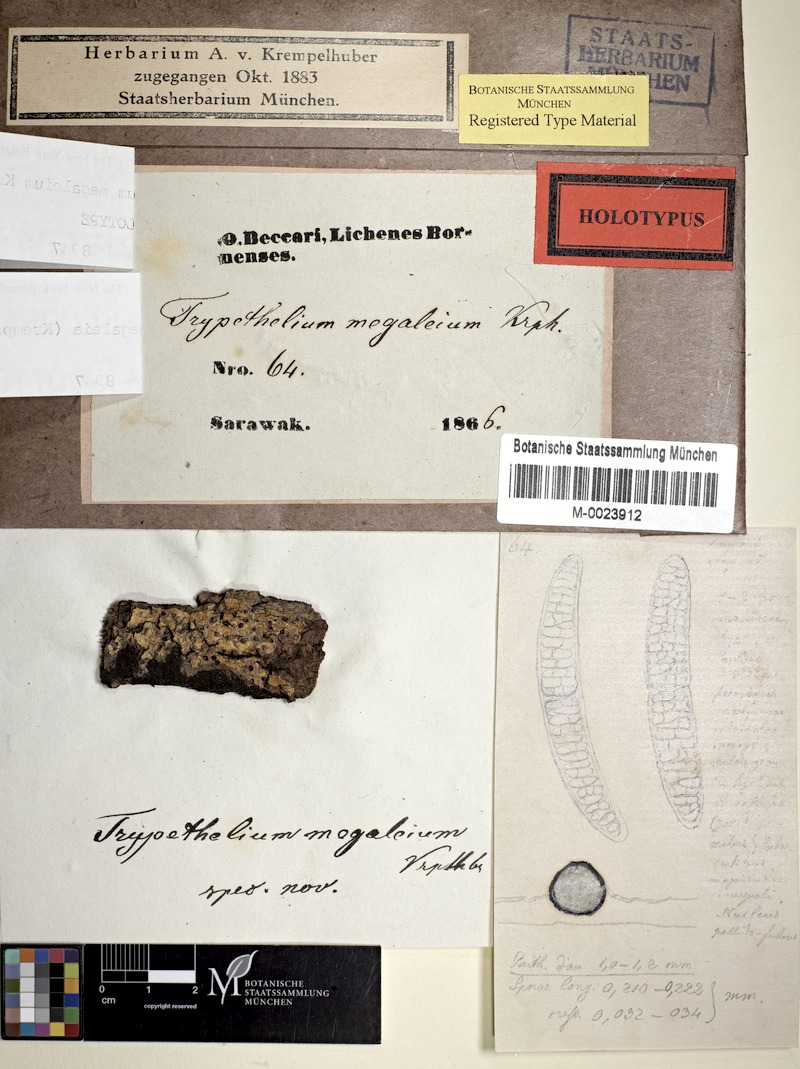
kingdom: Fungi
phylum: Ascomycota
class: Dothideomycetes
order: Trypetheliales
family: Trypetheliaceae
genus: Astrothelium
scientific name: Astrothelium megaleium
